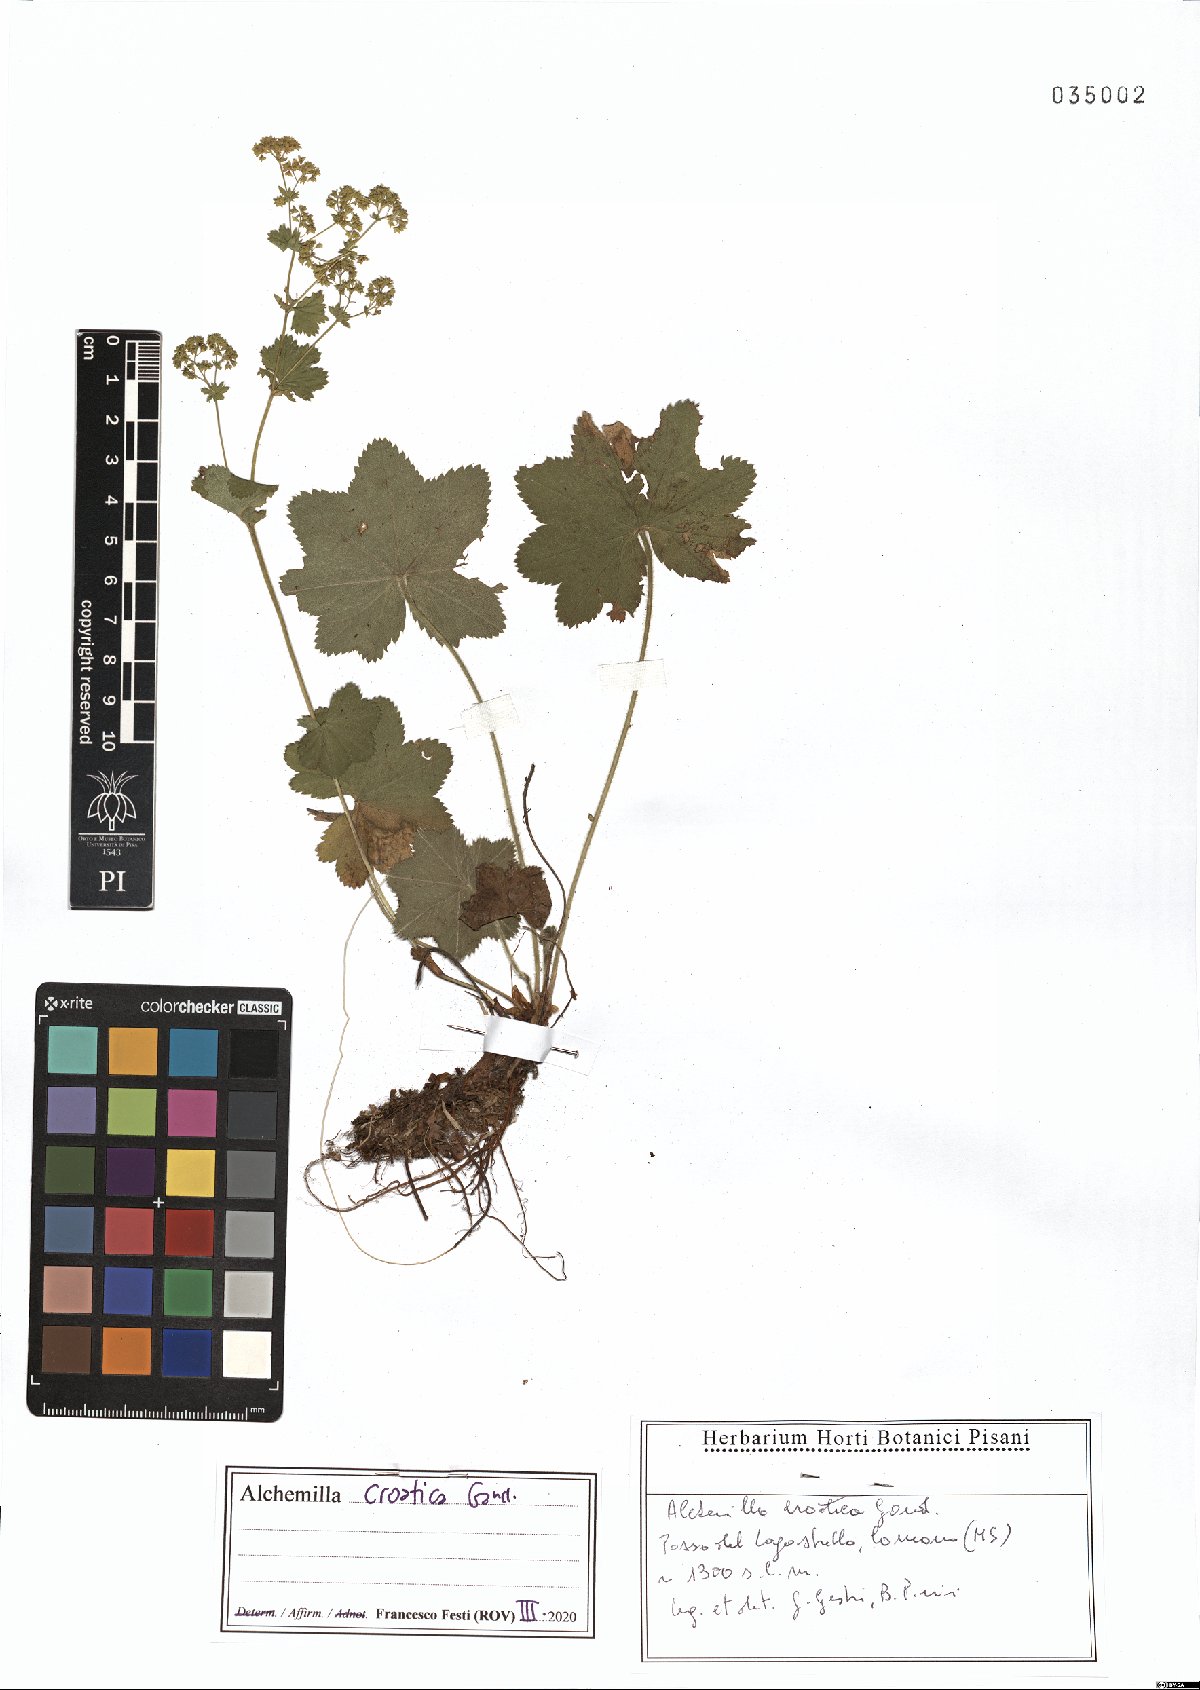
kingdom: Plantae
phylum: Tracheophyta
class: Magnoliopsida
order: Rosales
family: Rosaceae
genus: Alchemilla
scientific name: Alchemilla croatica
